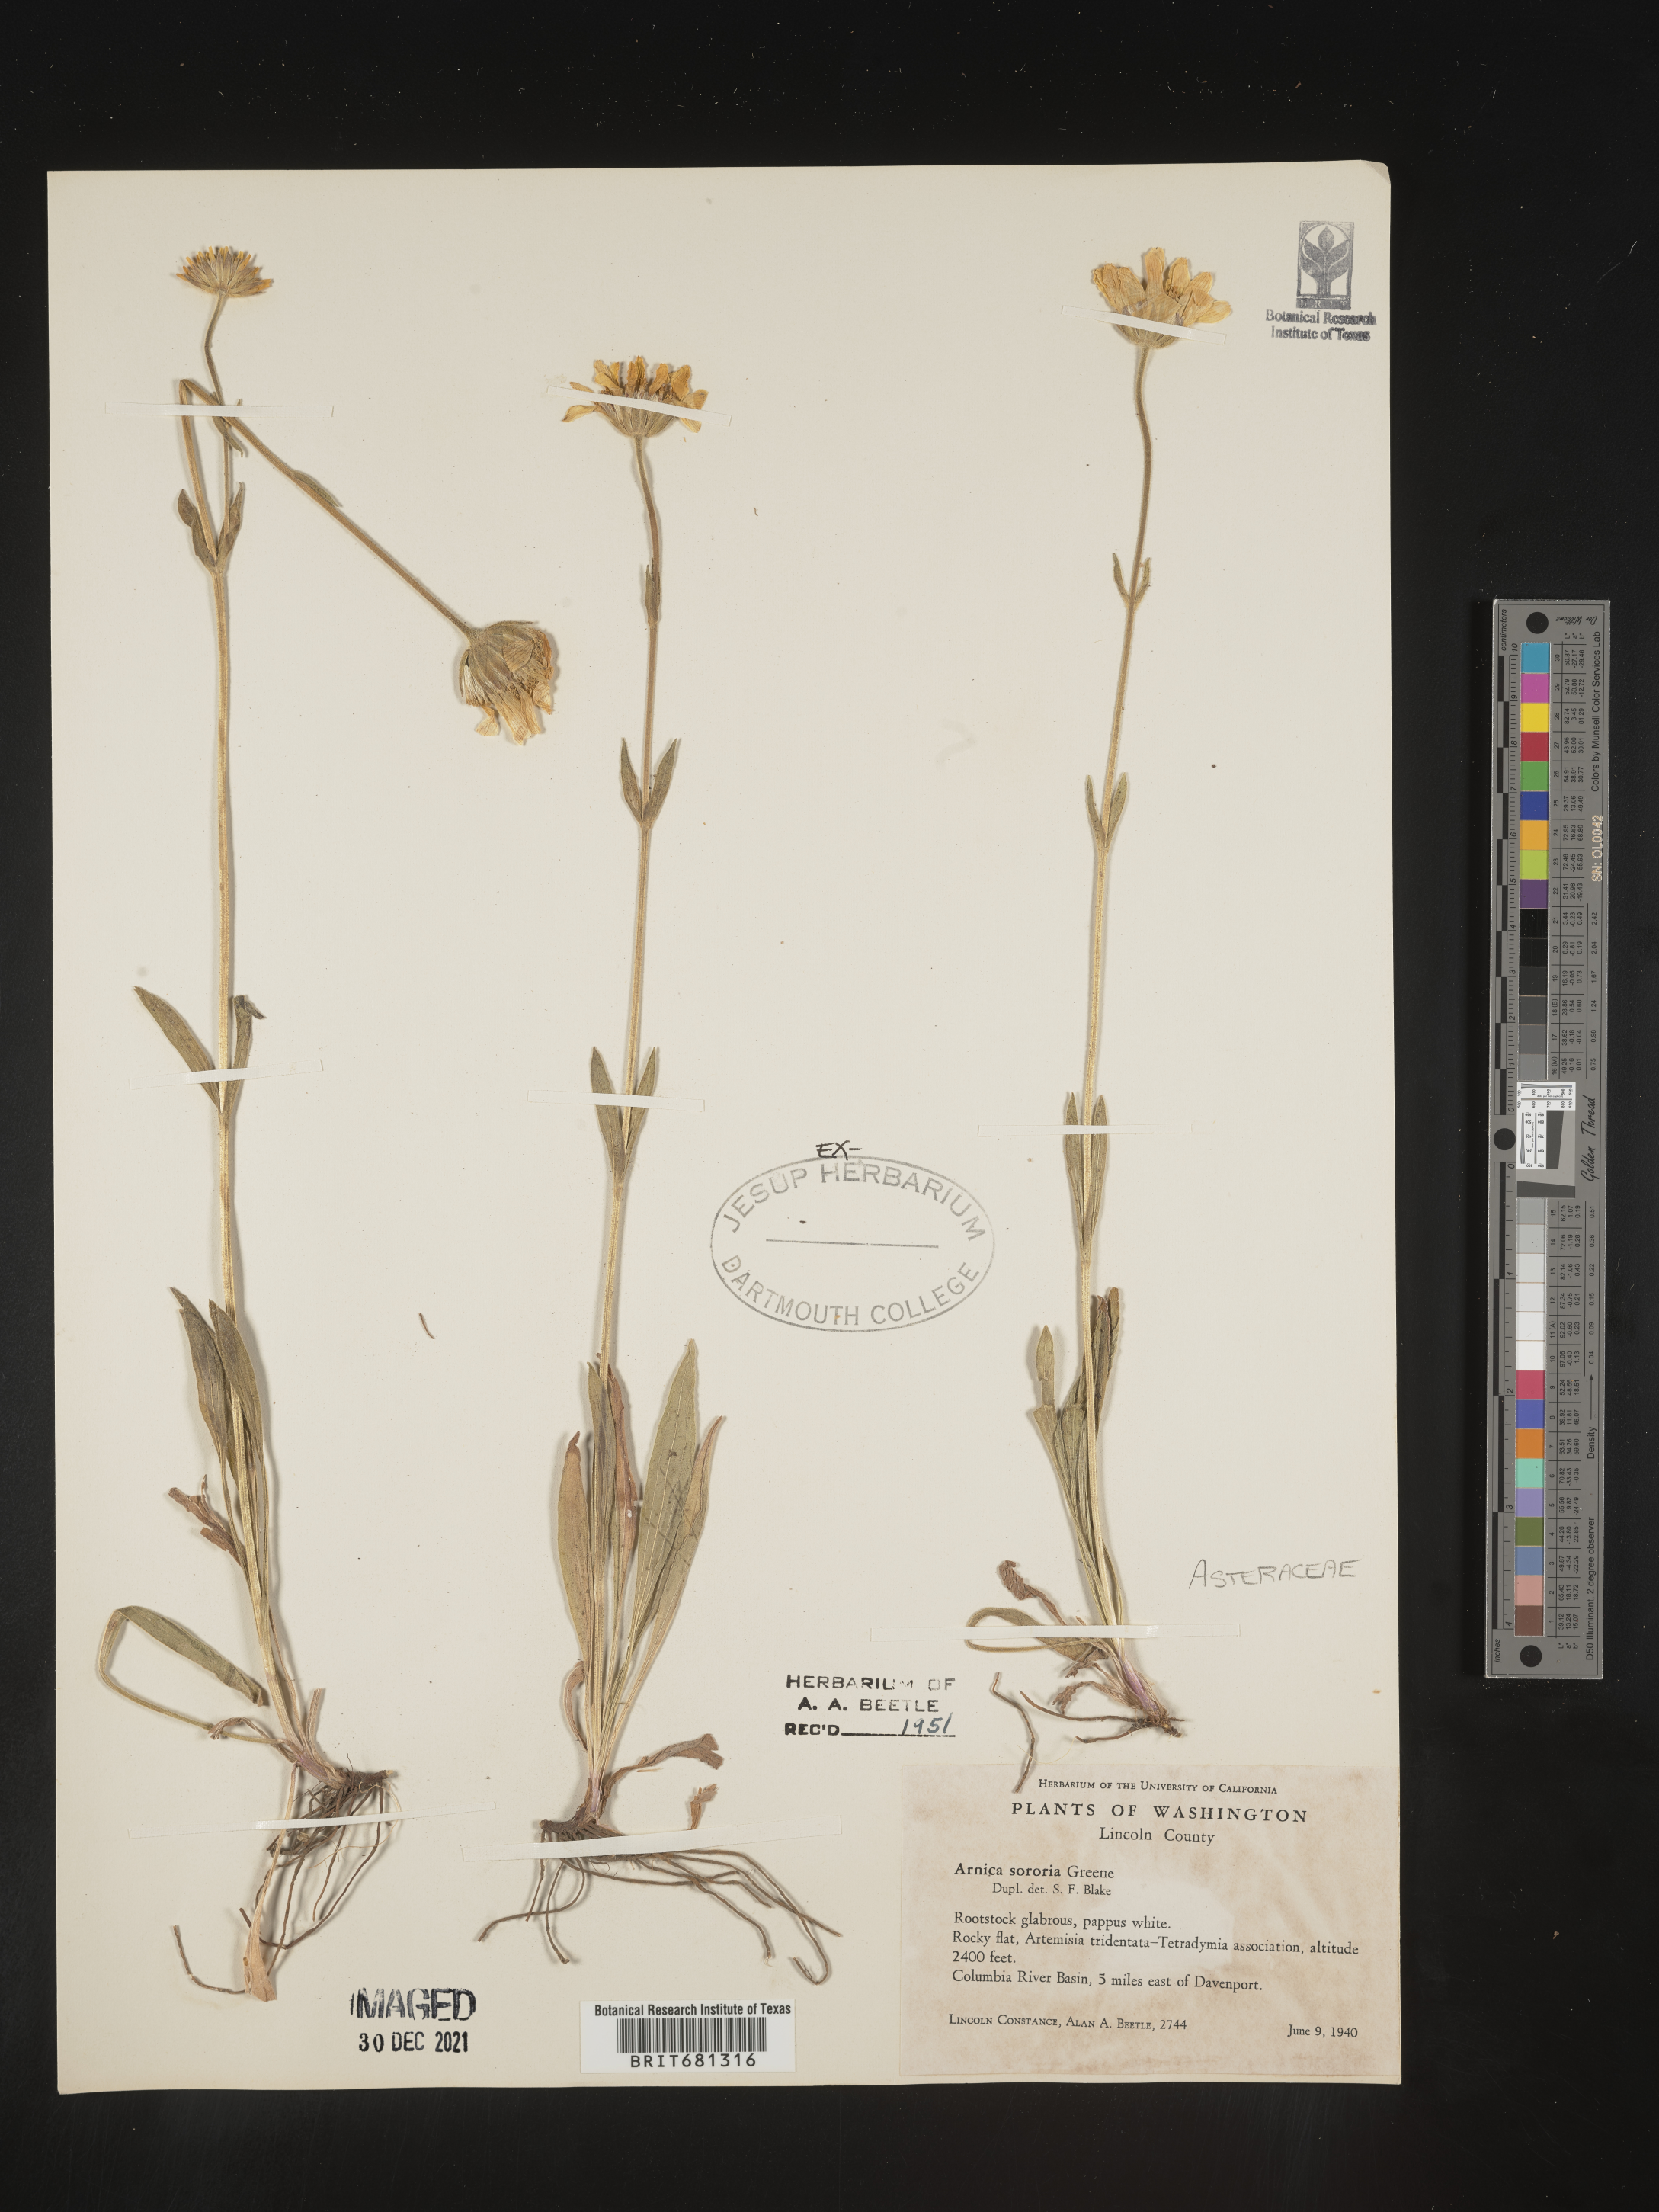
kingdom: Plantae
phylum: Tracheophyta
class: Magnoliopsida
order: Asterales
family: Asteraceae
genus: Arnica
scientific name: Arnica sororia
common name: Twin arnica
